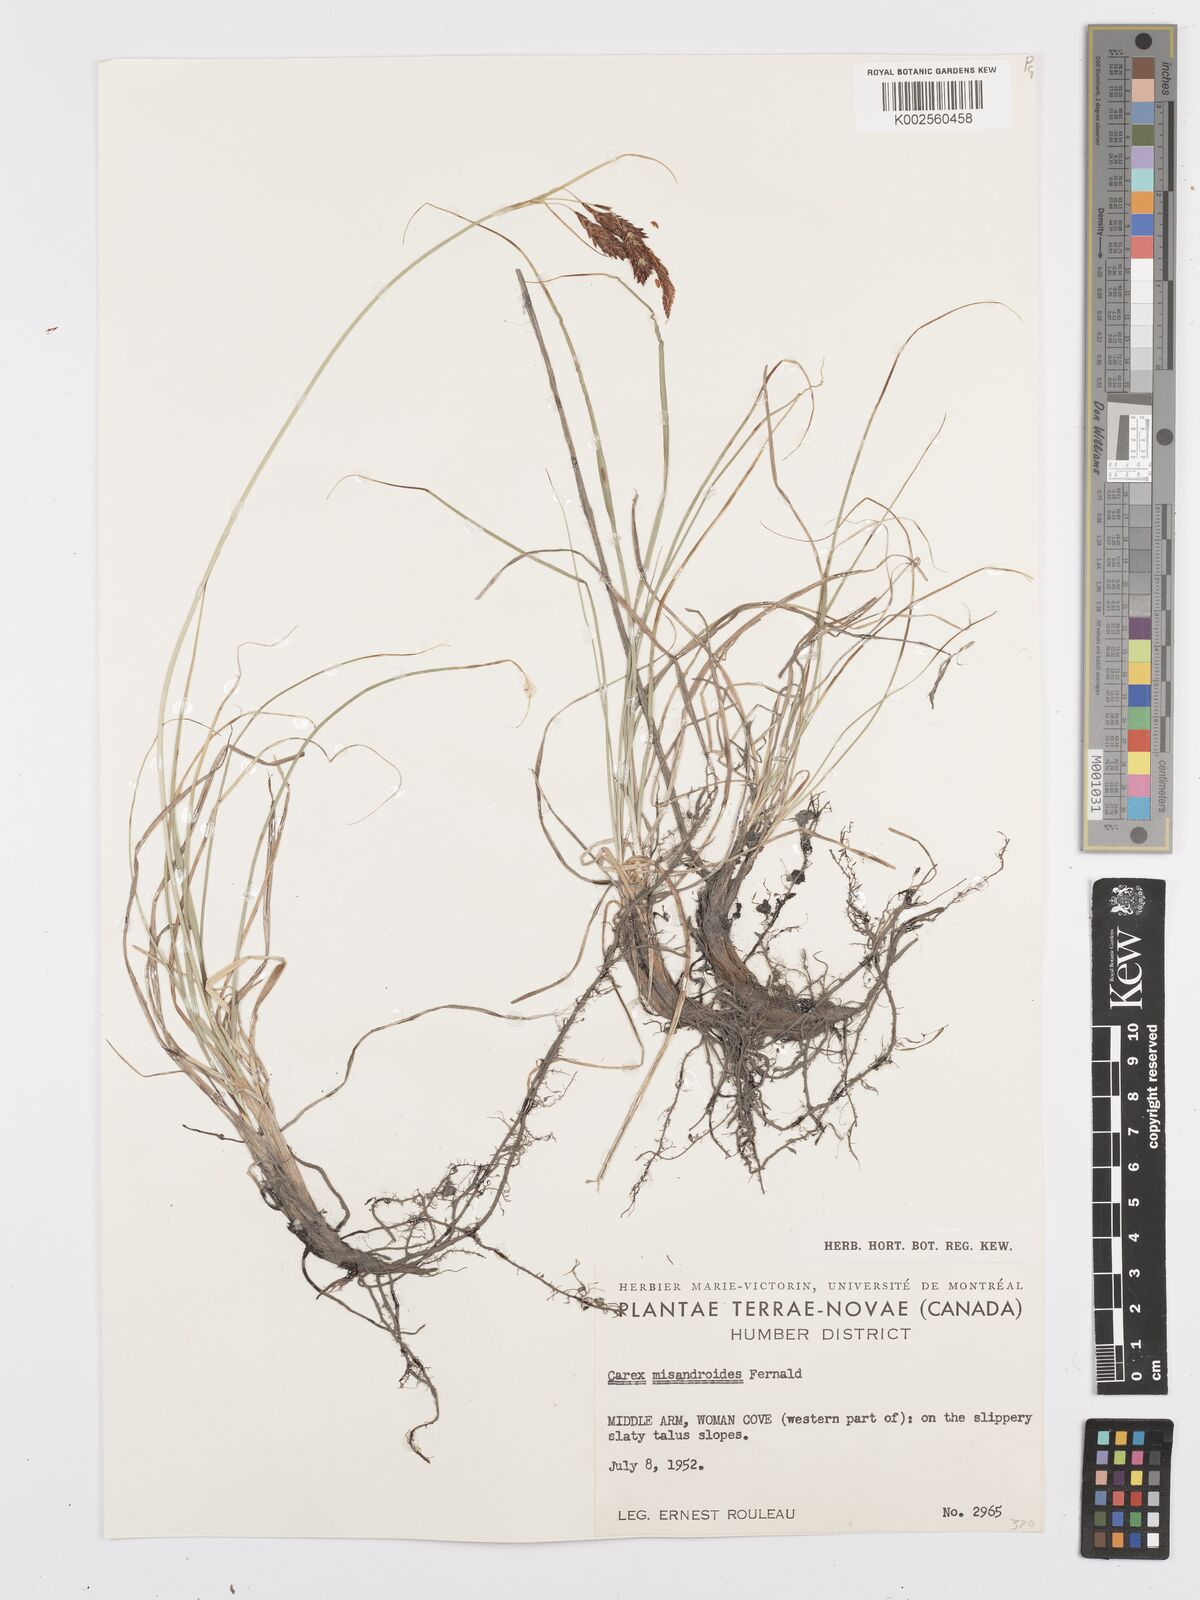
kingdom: Plantae
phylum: Tracheophyta
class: Liliopsida
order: Poales
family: Cyperaceae
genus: Carex
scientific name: Carex petricosa
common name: Rock sedge
